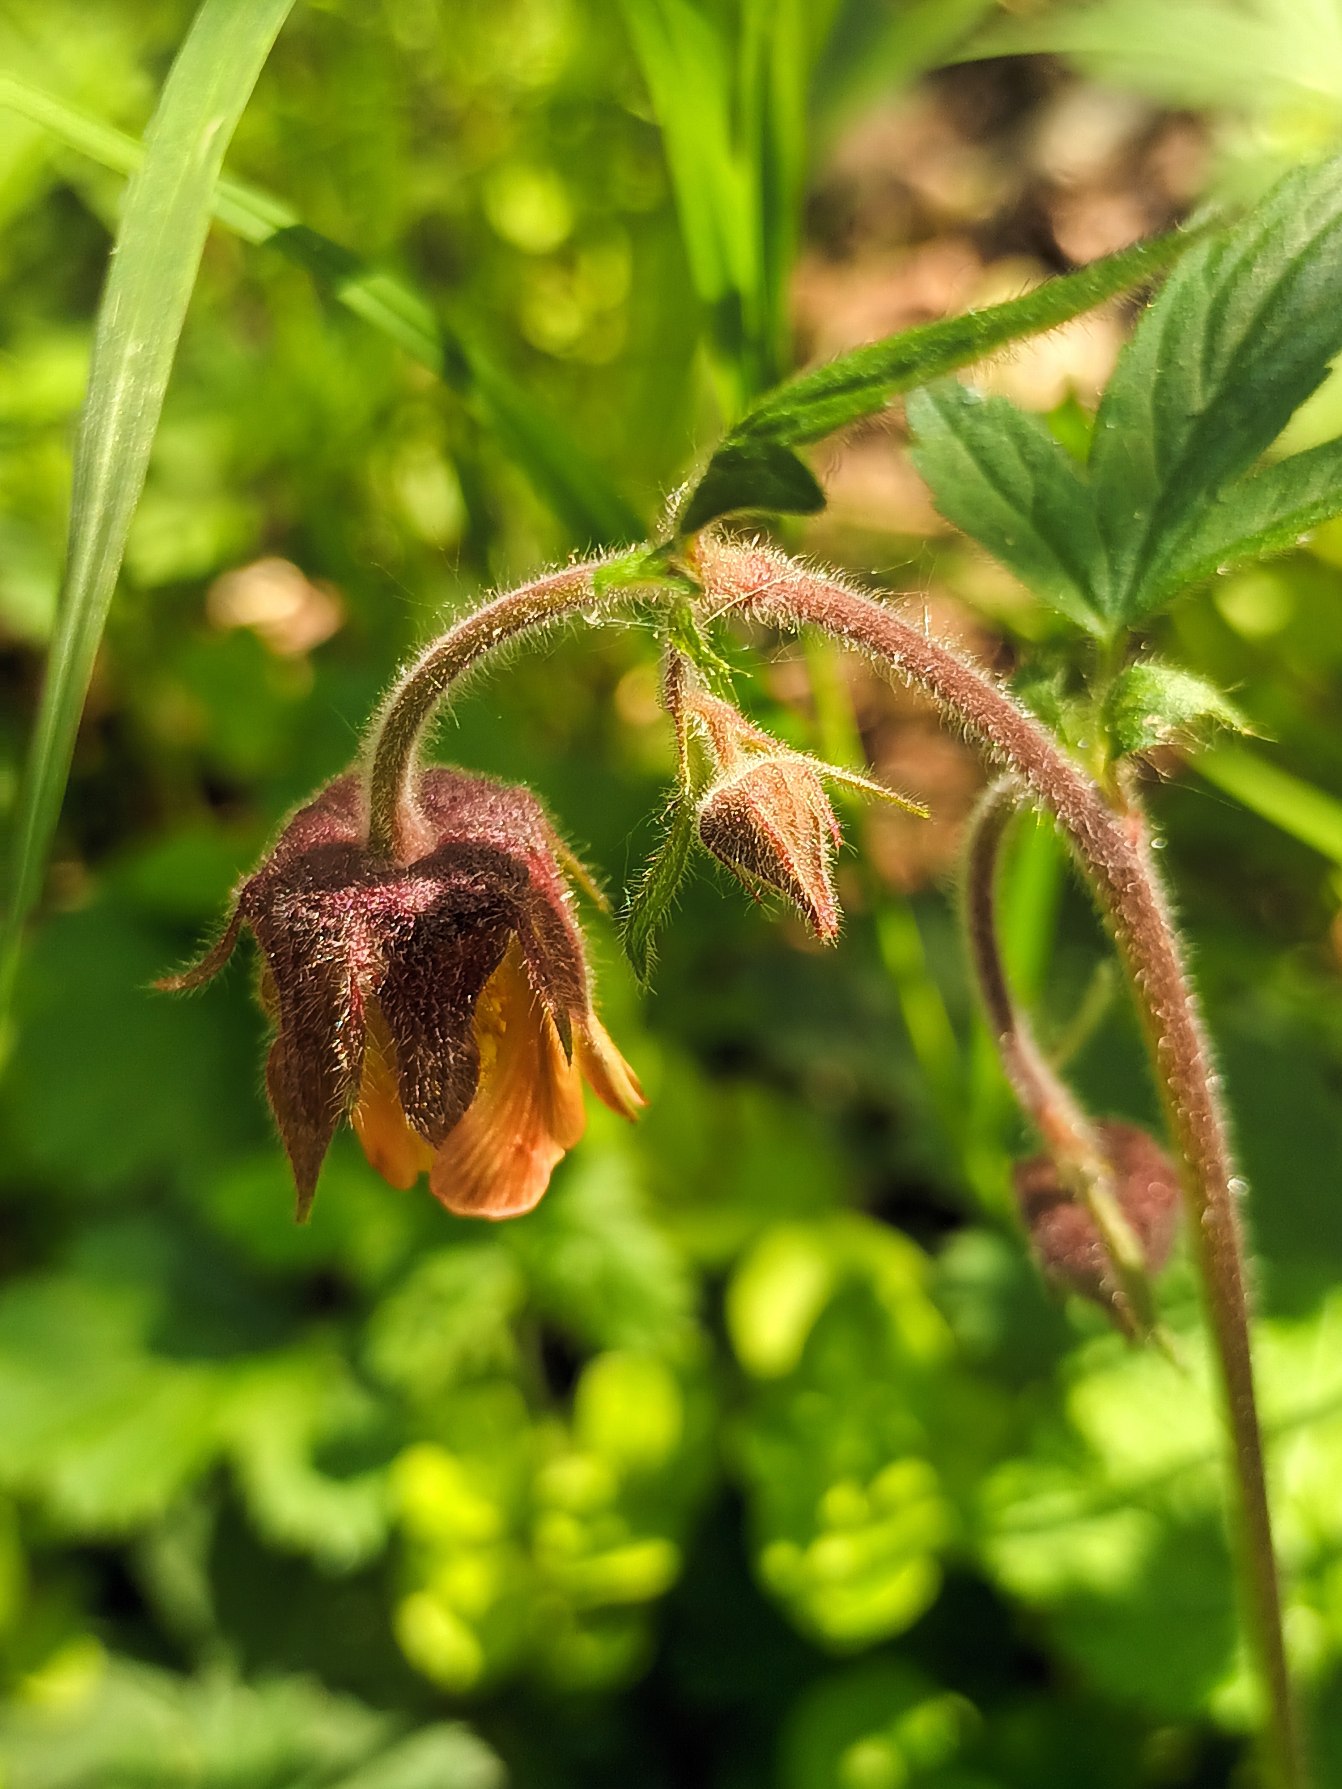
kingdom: Plantae
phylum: Tracheophyta
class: Magnoliopsida
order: Rosales
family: Rosaceae
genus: Geum
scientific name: Geum rivale
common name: Eng-nellikerod
